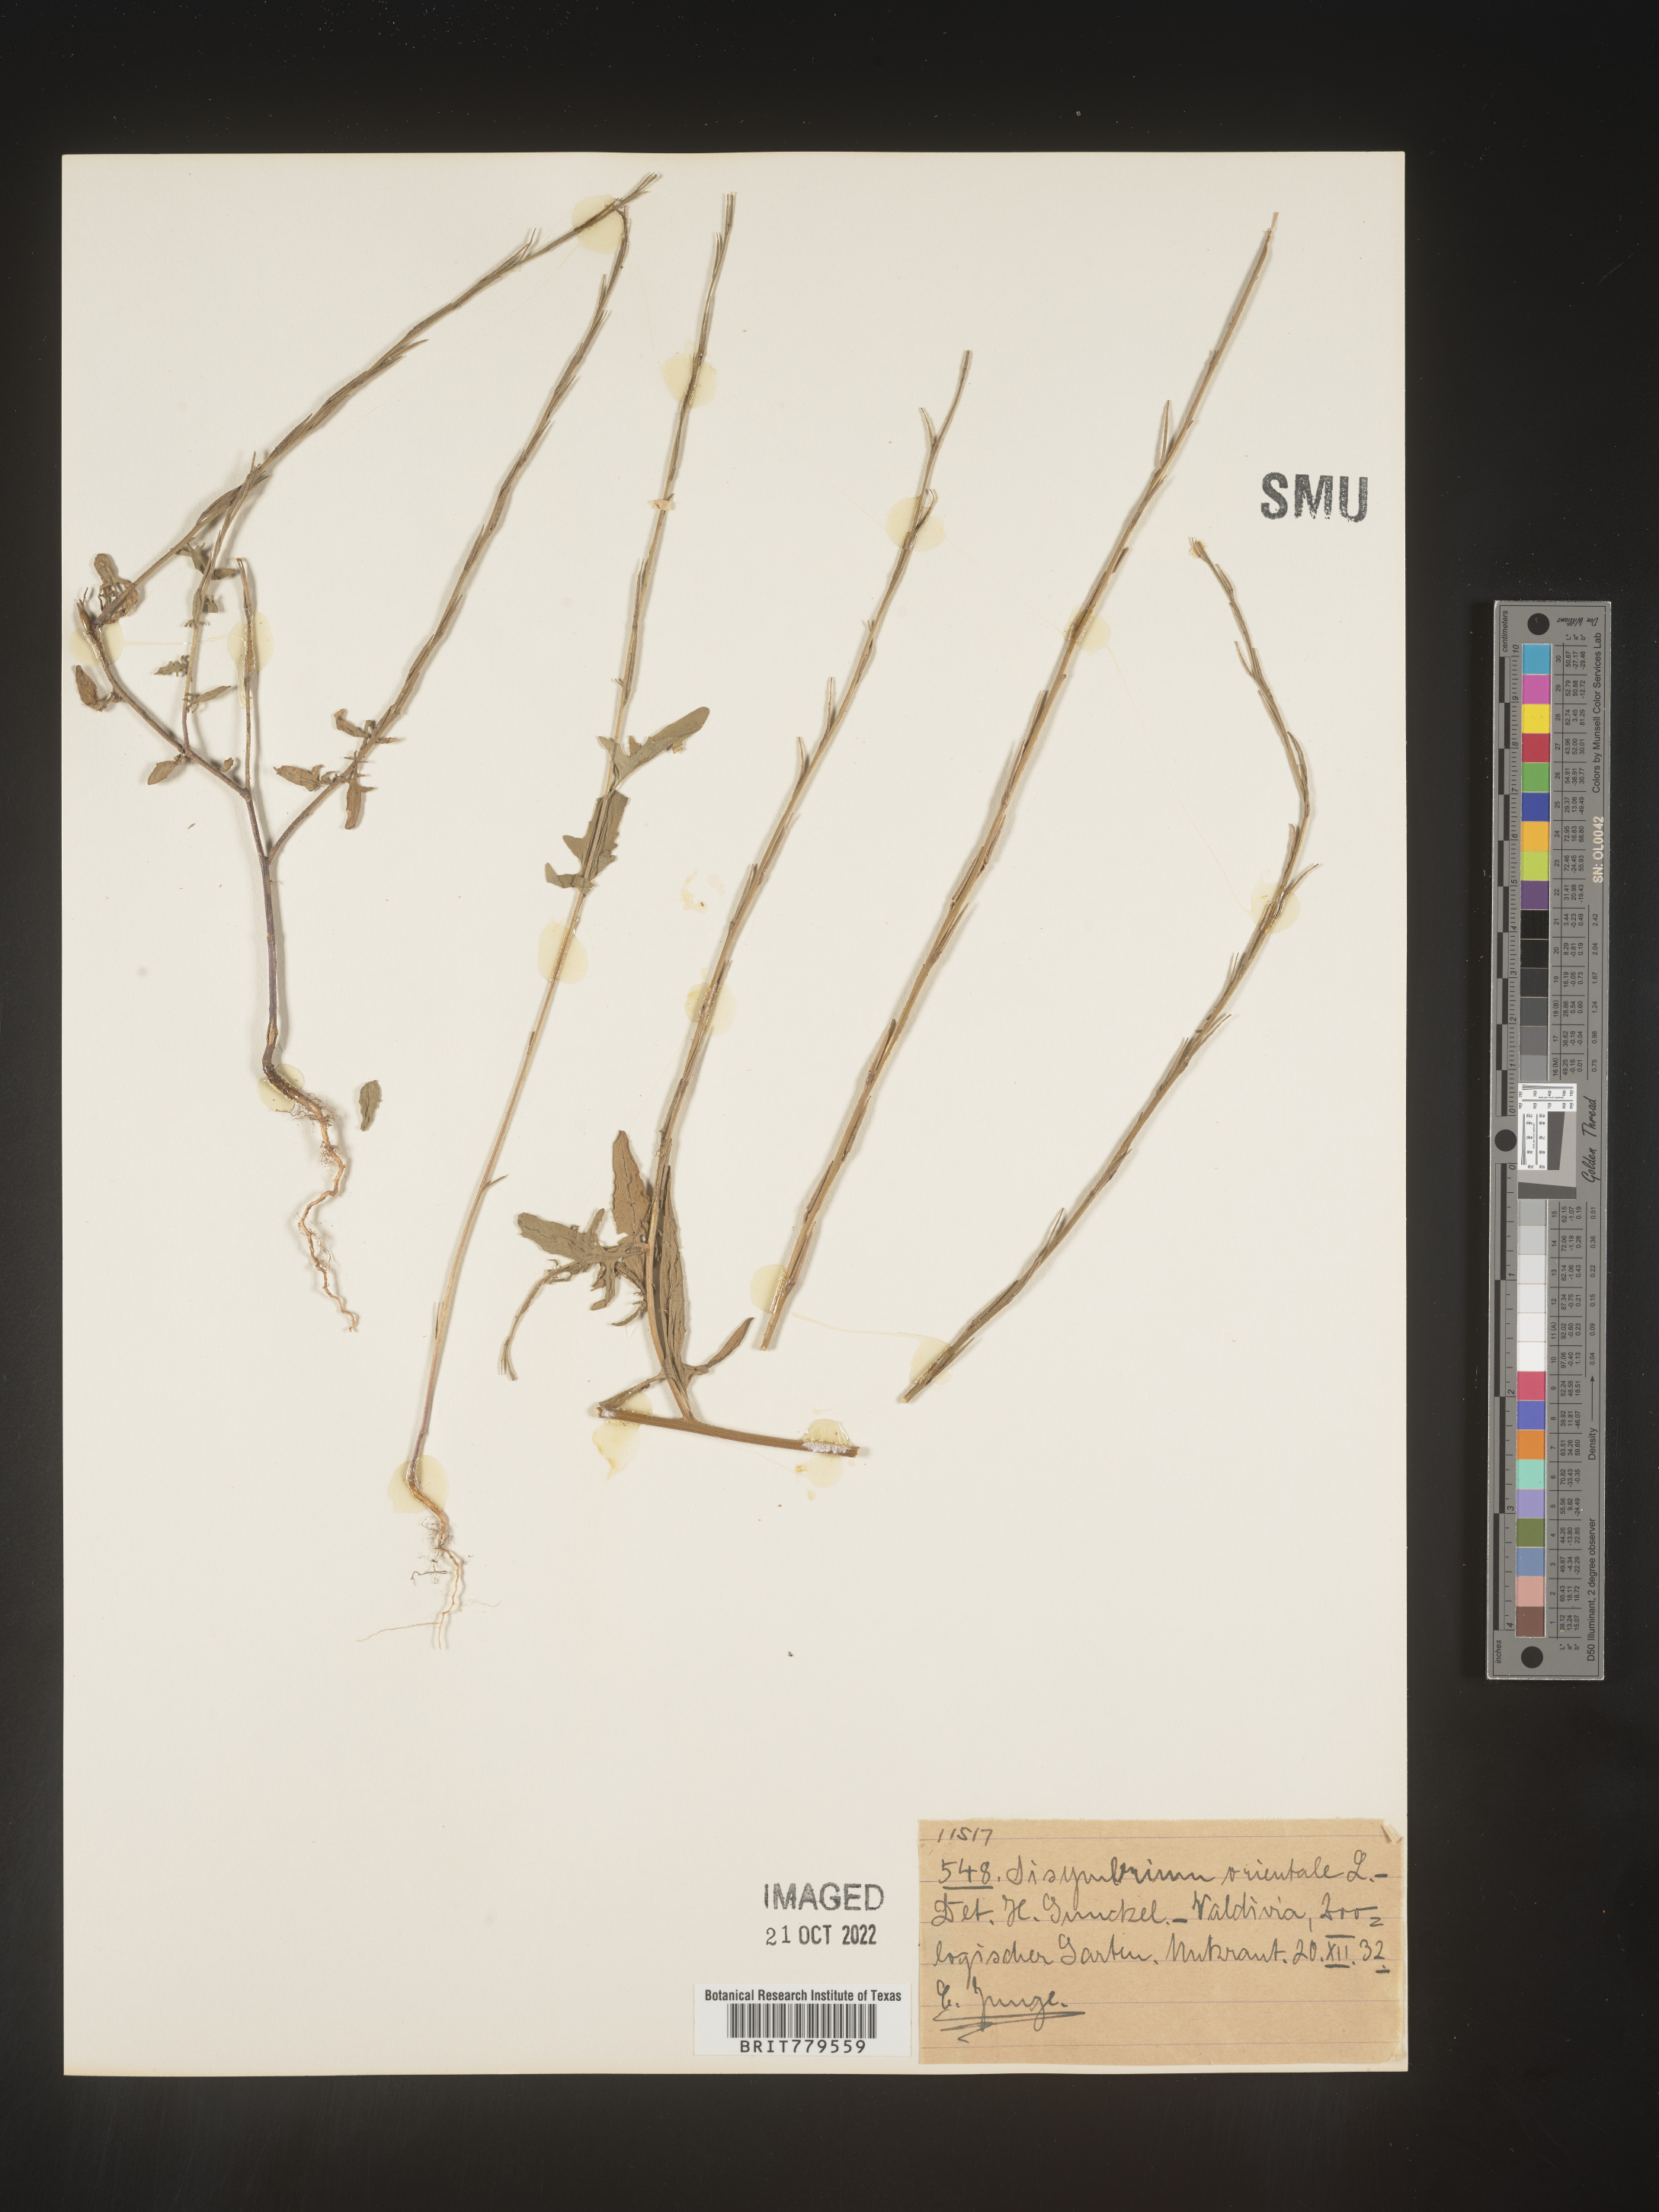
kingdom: Plantae
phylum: Tracheophyta
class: Magnoliopsida
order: Brassicales
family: Brassicaceae
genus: Sisymbrium
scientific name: Sisymbrium
